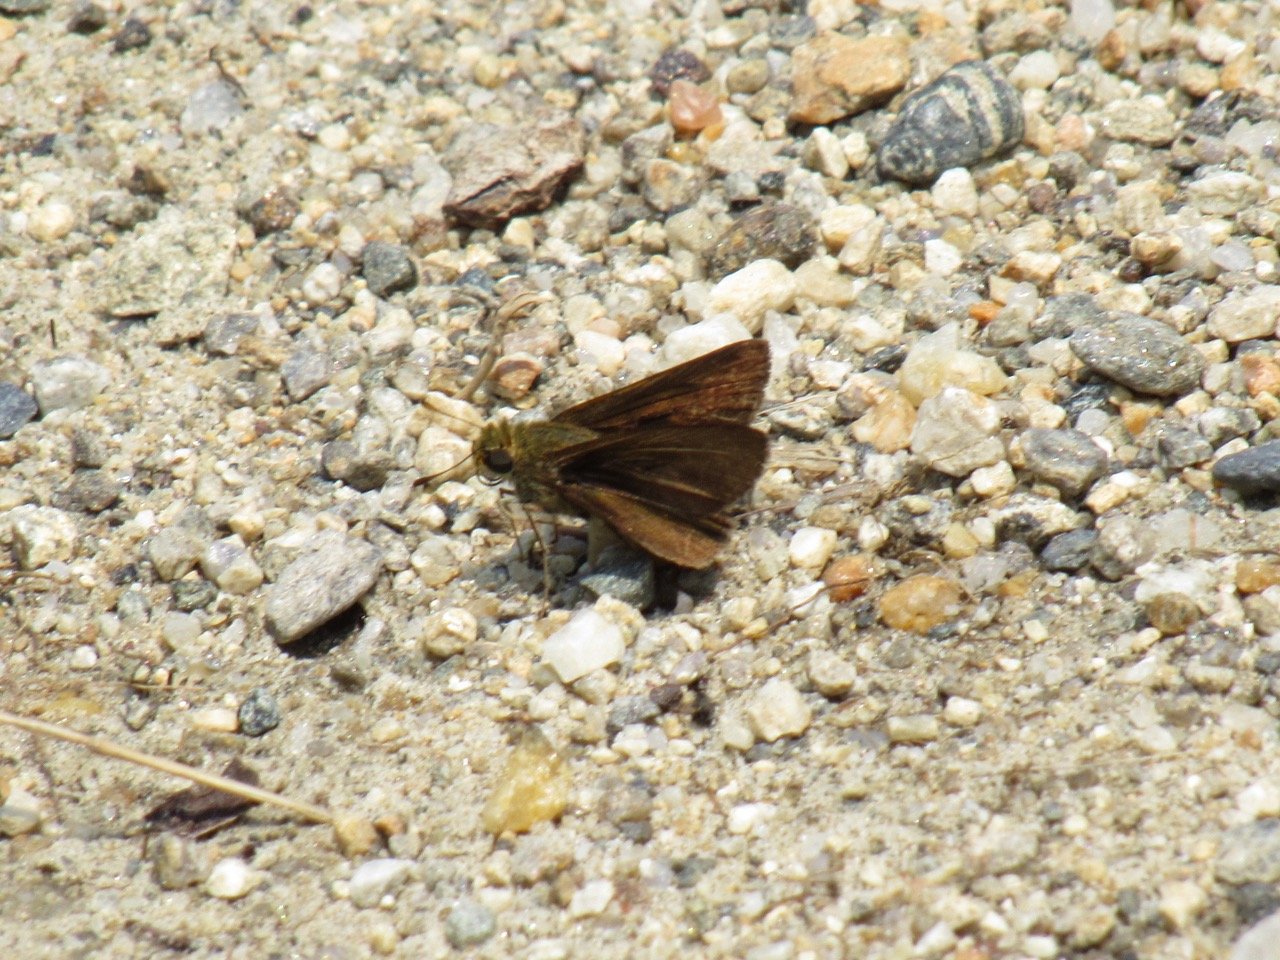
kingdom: Animalia
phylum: Arthropoda
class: Insecta
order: Lepidoptera
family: Hesperiidae
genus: Euphyes
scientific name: Euphyes vestris
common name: Dun Skipper
